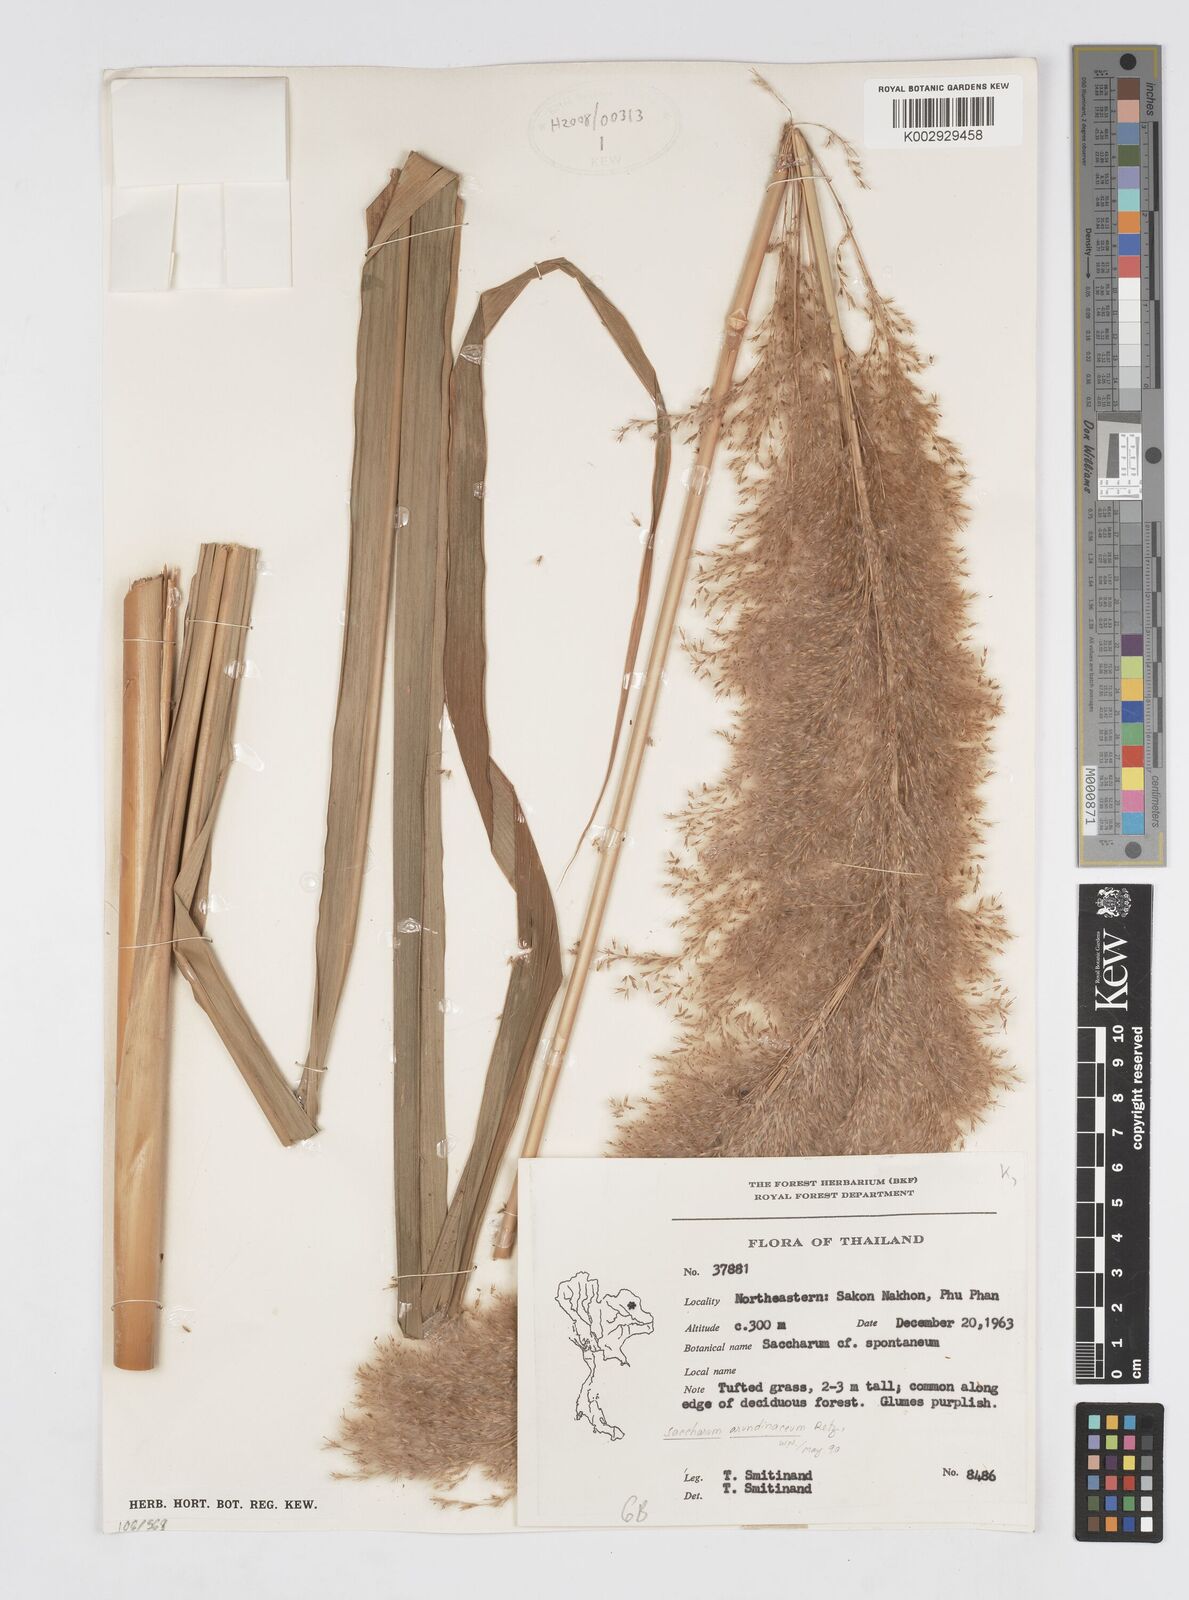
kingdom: Plantae
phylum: Tracheophyta
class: Liliopsida
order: Poales
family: Poaceae
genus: Saccharum
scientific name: Saccharum spontaneum
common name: Wild sugarcane
